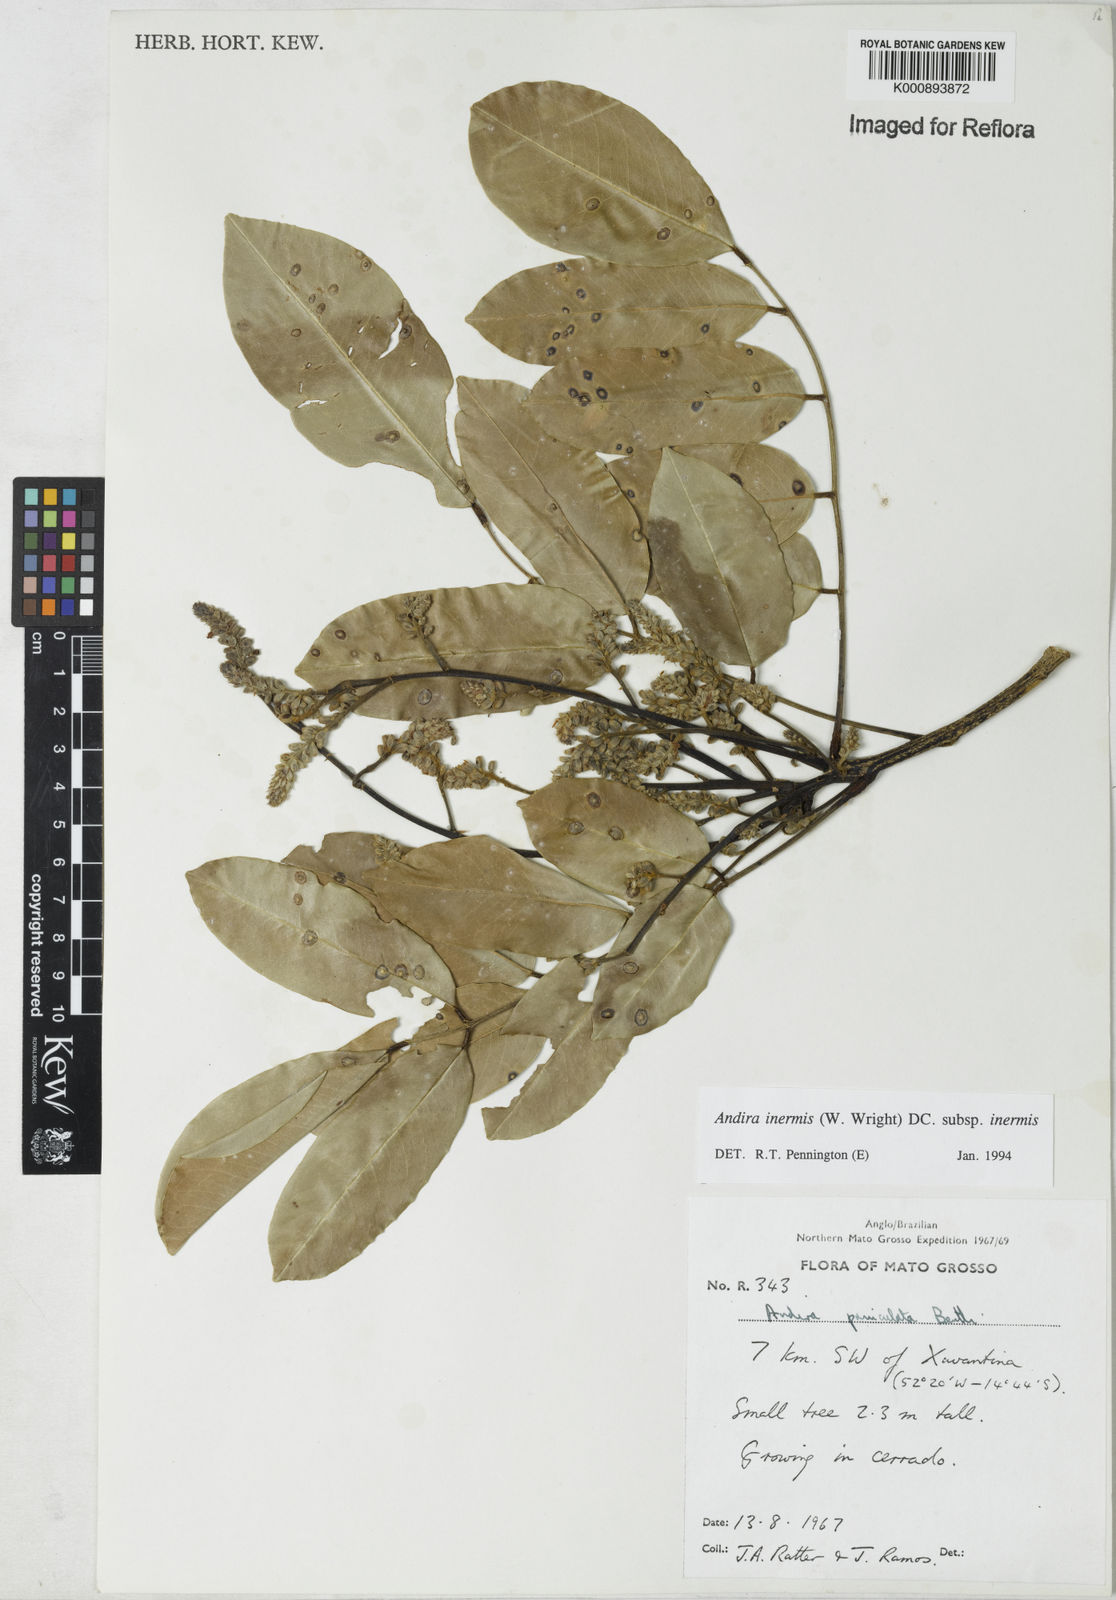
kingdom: Plantae
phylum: Tracheophyta
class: Magnoliopsida
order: Fabales
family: Fabaceae
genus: Andira
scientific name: Andira inermis
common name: Angelin
